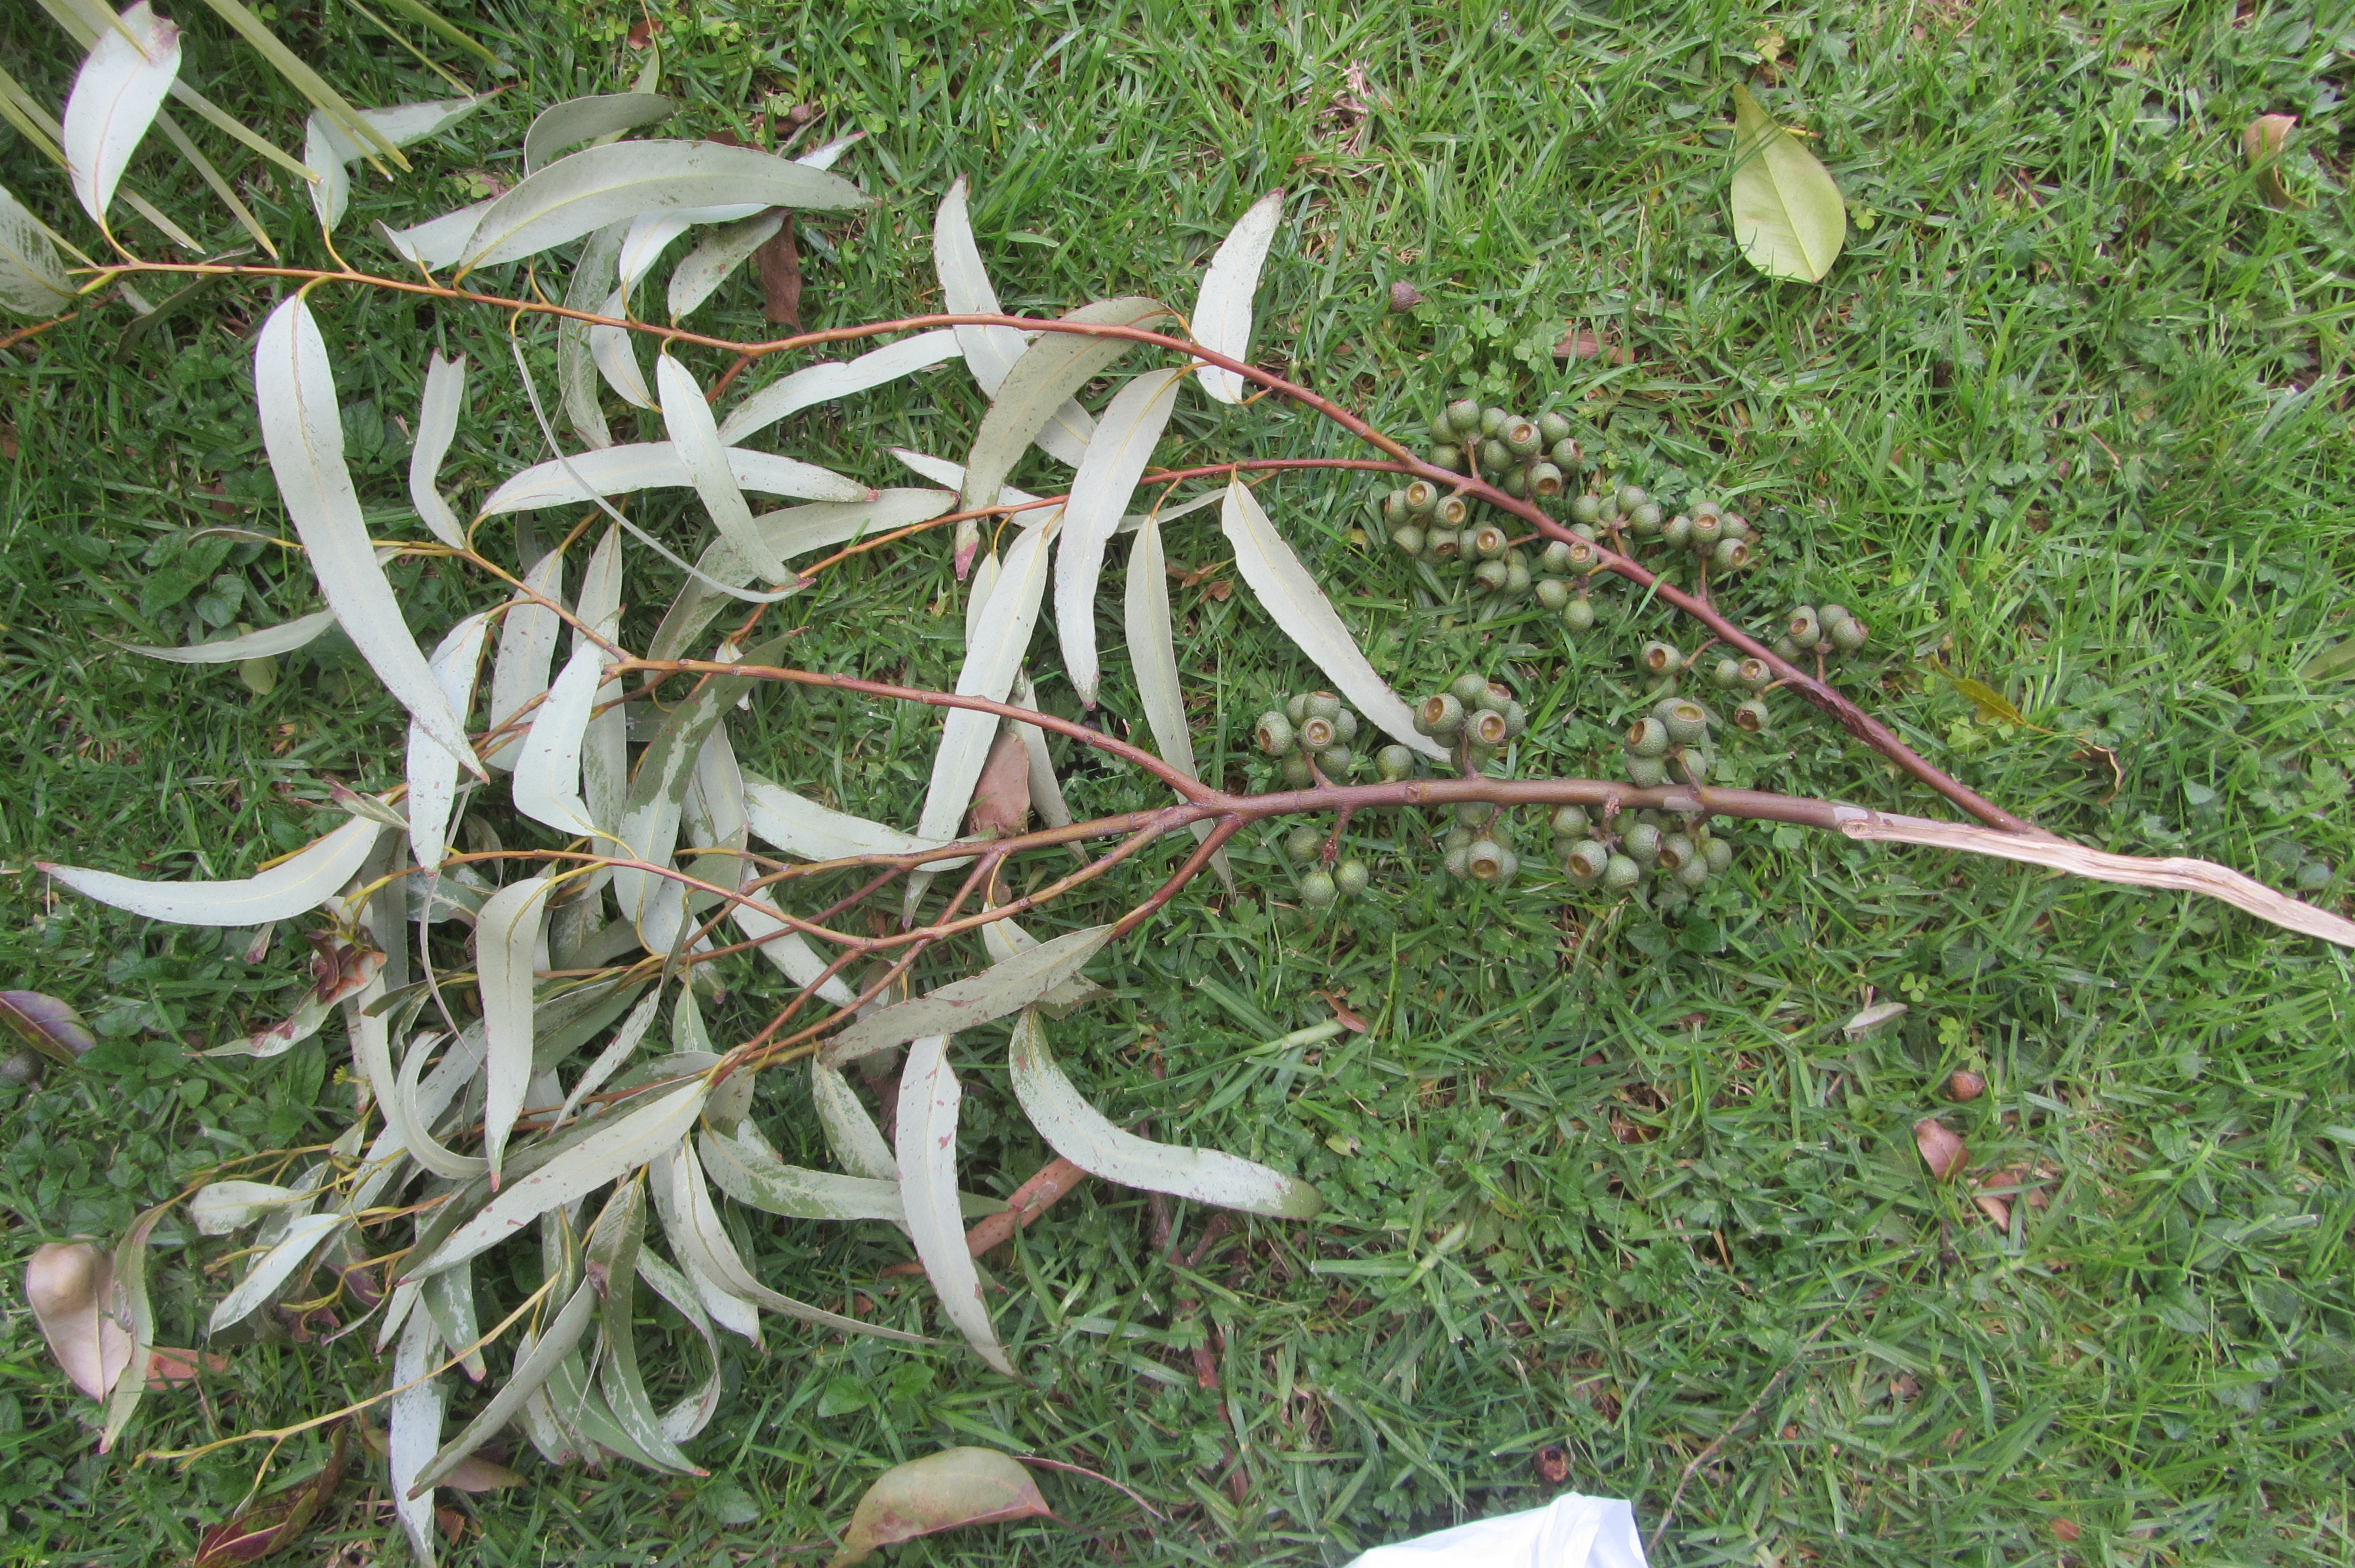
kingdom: Plantae
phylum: Tracheophyta
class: Magnoliopsida
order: Myrtales
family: Myrtaceae
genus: Eucalyptus
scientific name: Eucalyptus pilularis
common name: Blackbutt
